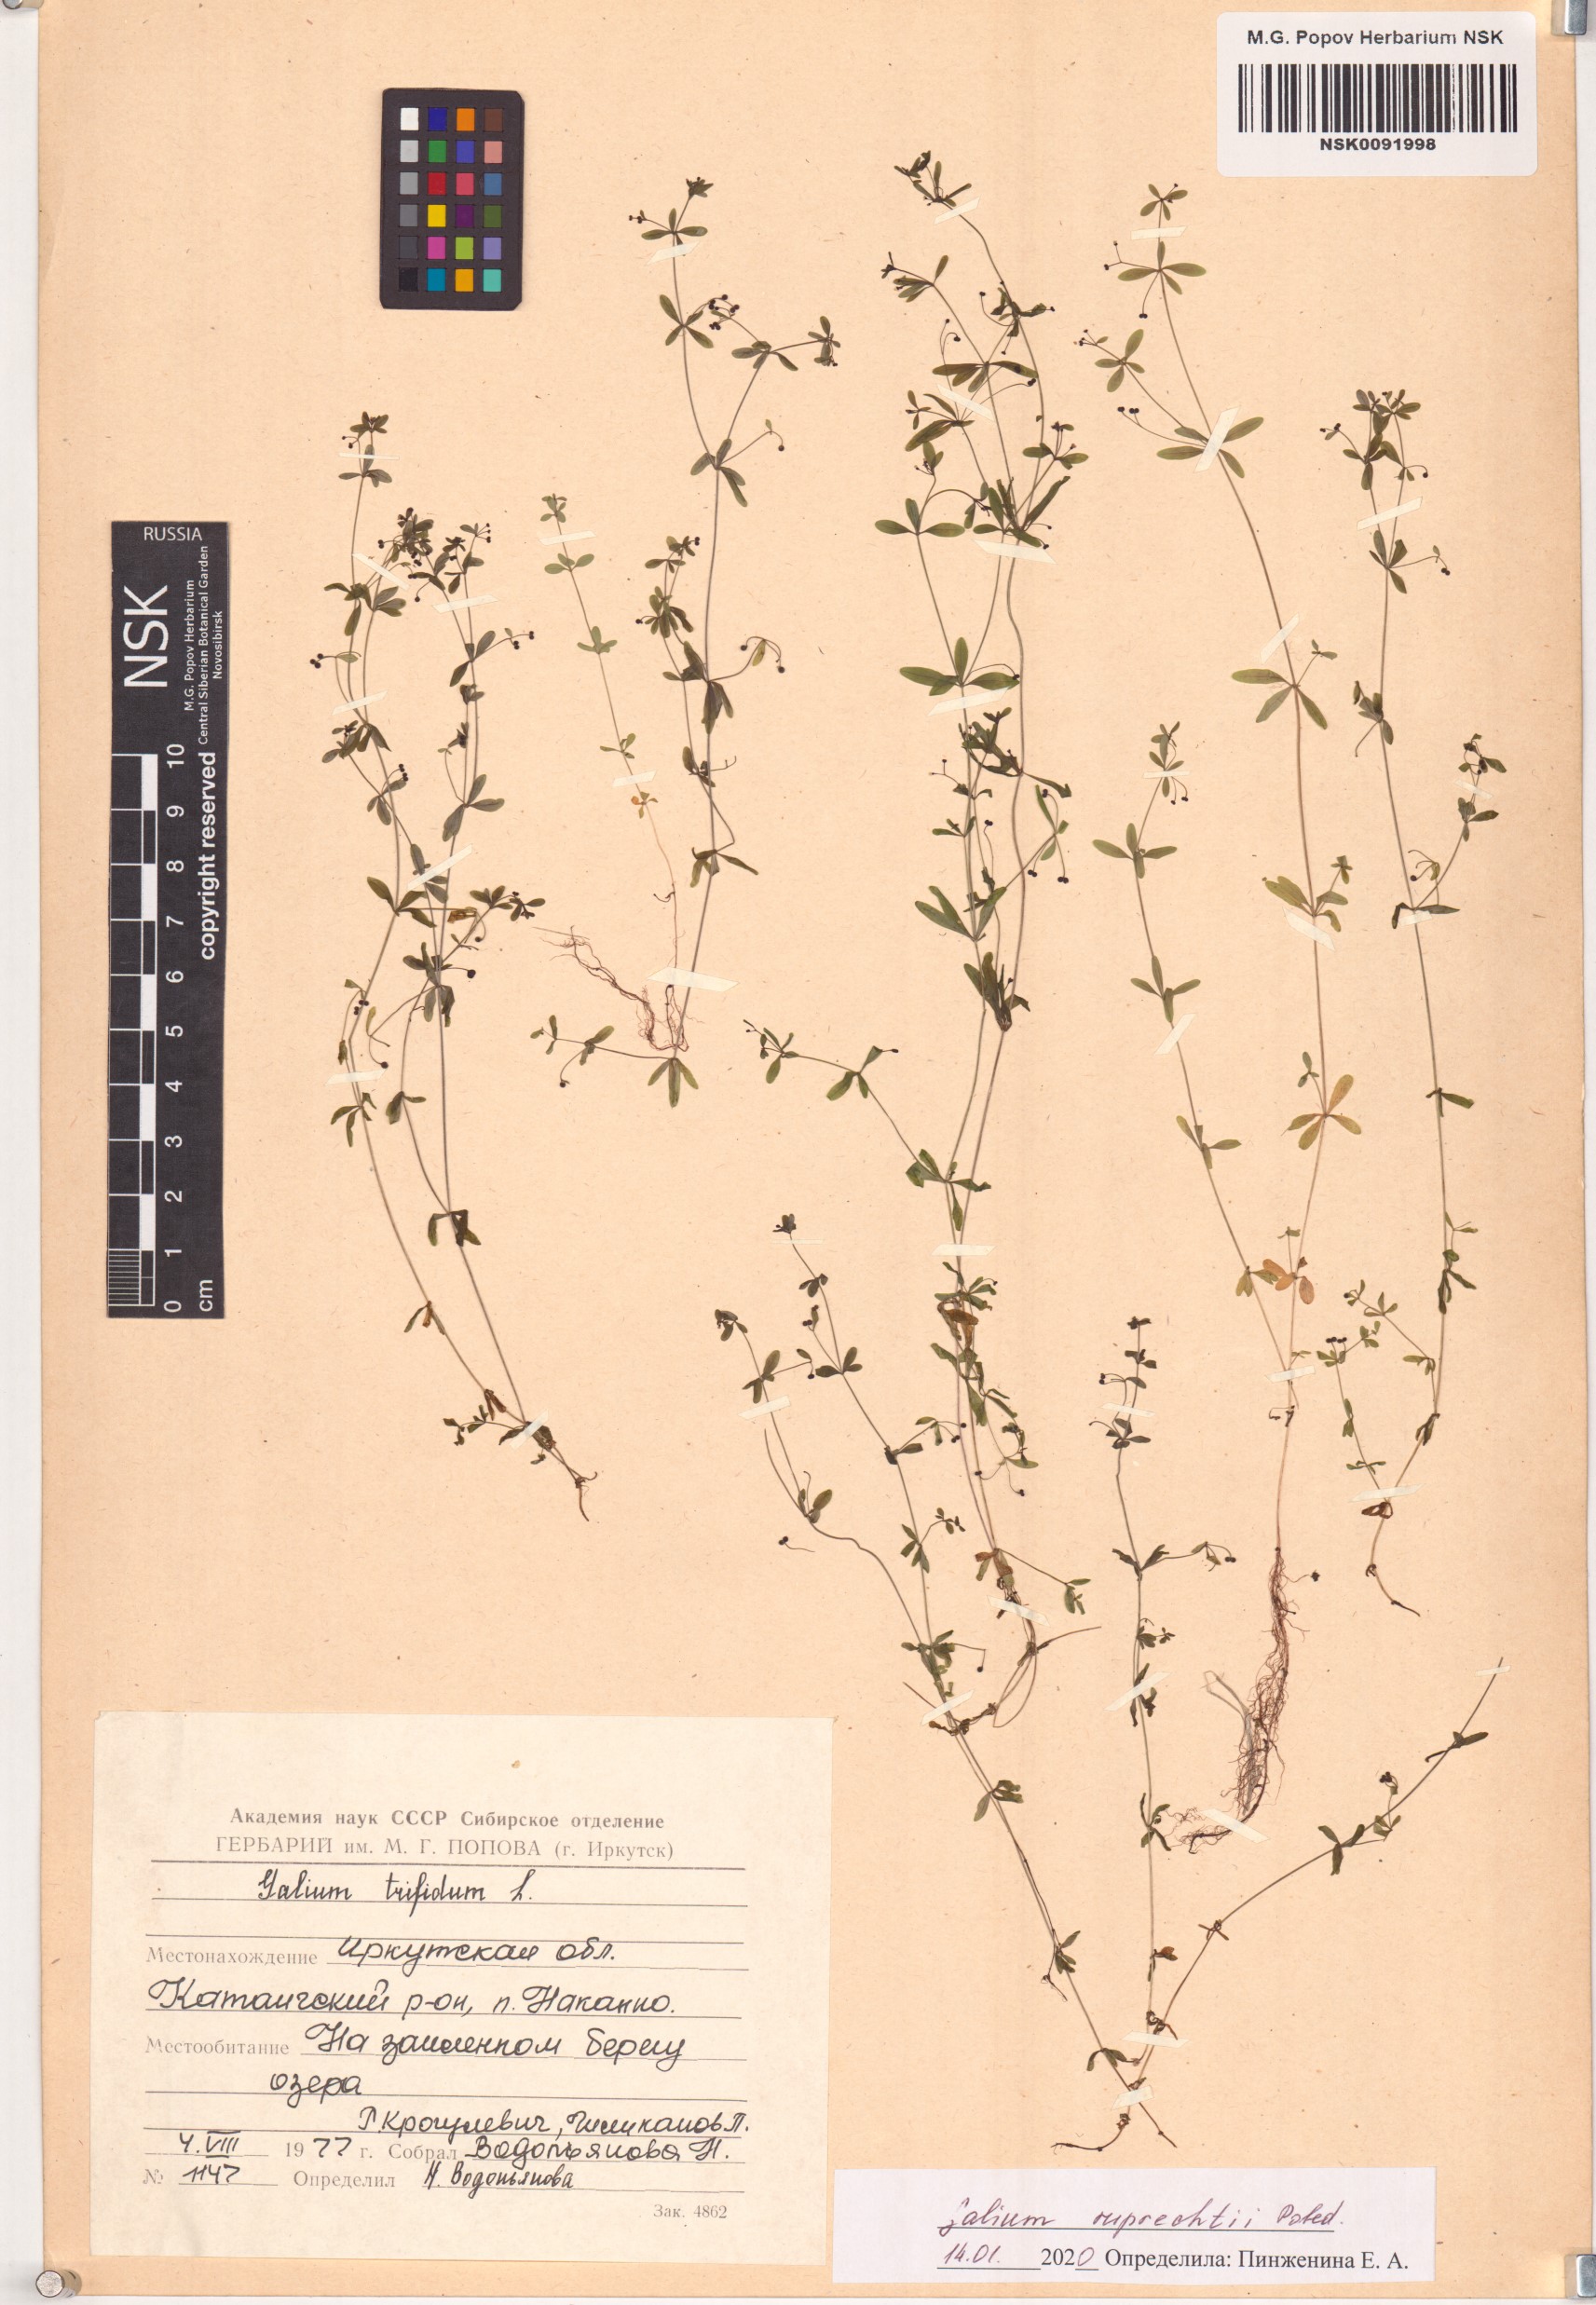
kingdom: Plantae
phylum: Tracheophyta
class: Magnoliopsida
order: Gentianales
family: Rubiaceae
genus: Galium
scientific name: Galium trifidum
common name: Small bedstraw
